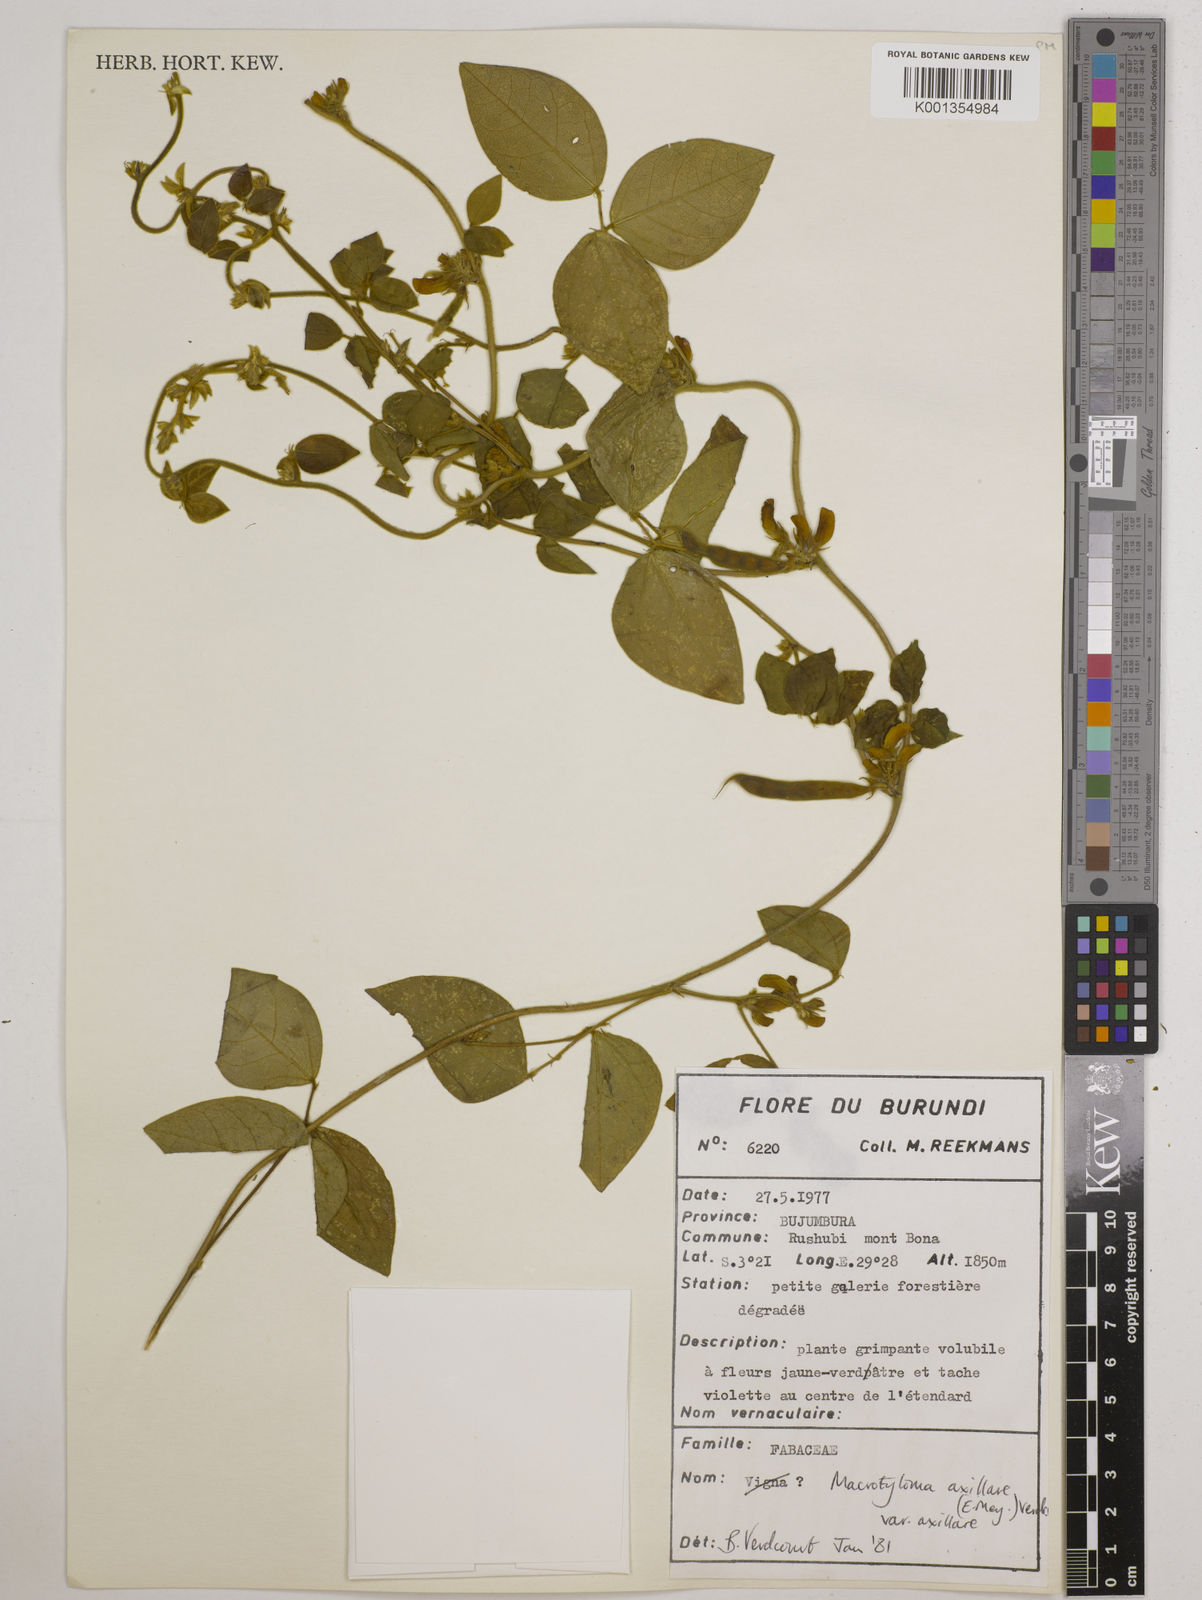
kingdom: Plantae
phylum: Tracheophyta
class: Magnoliopsida
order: Fabales
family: Fabaceae
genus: Macrotyloma
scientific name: Macrotyloma
